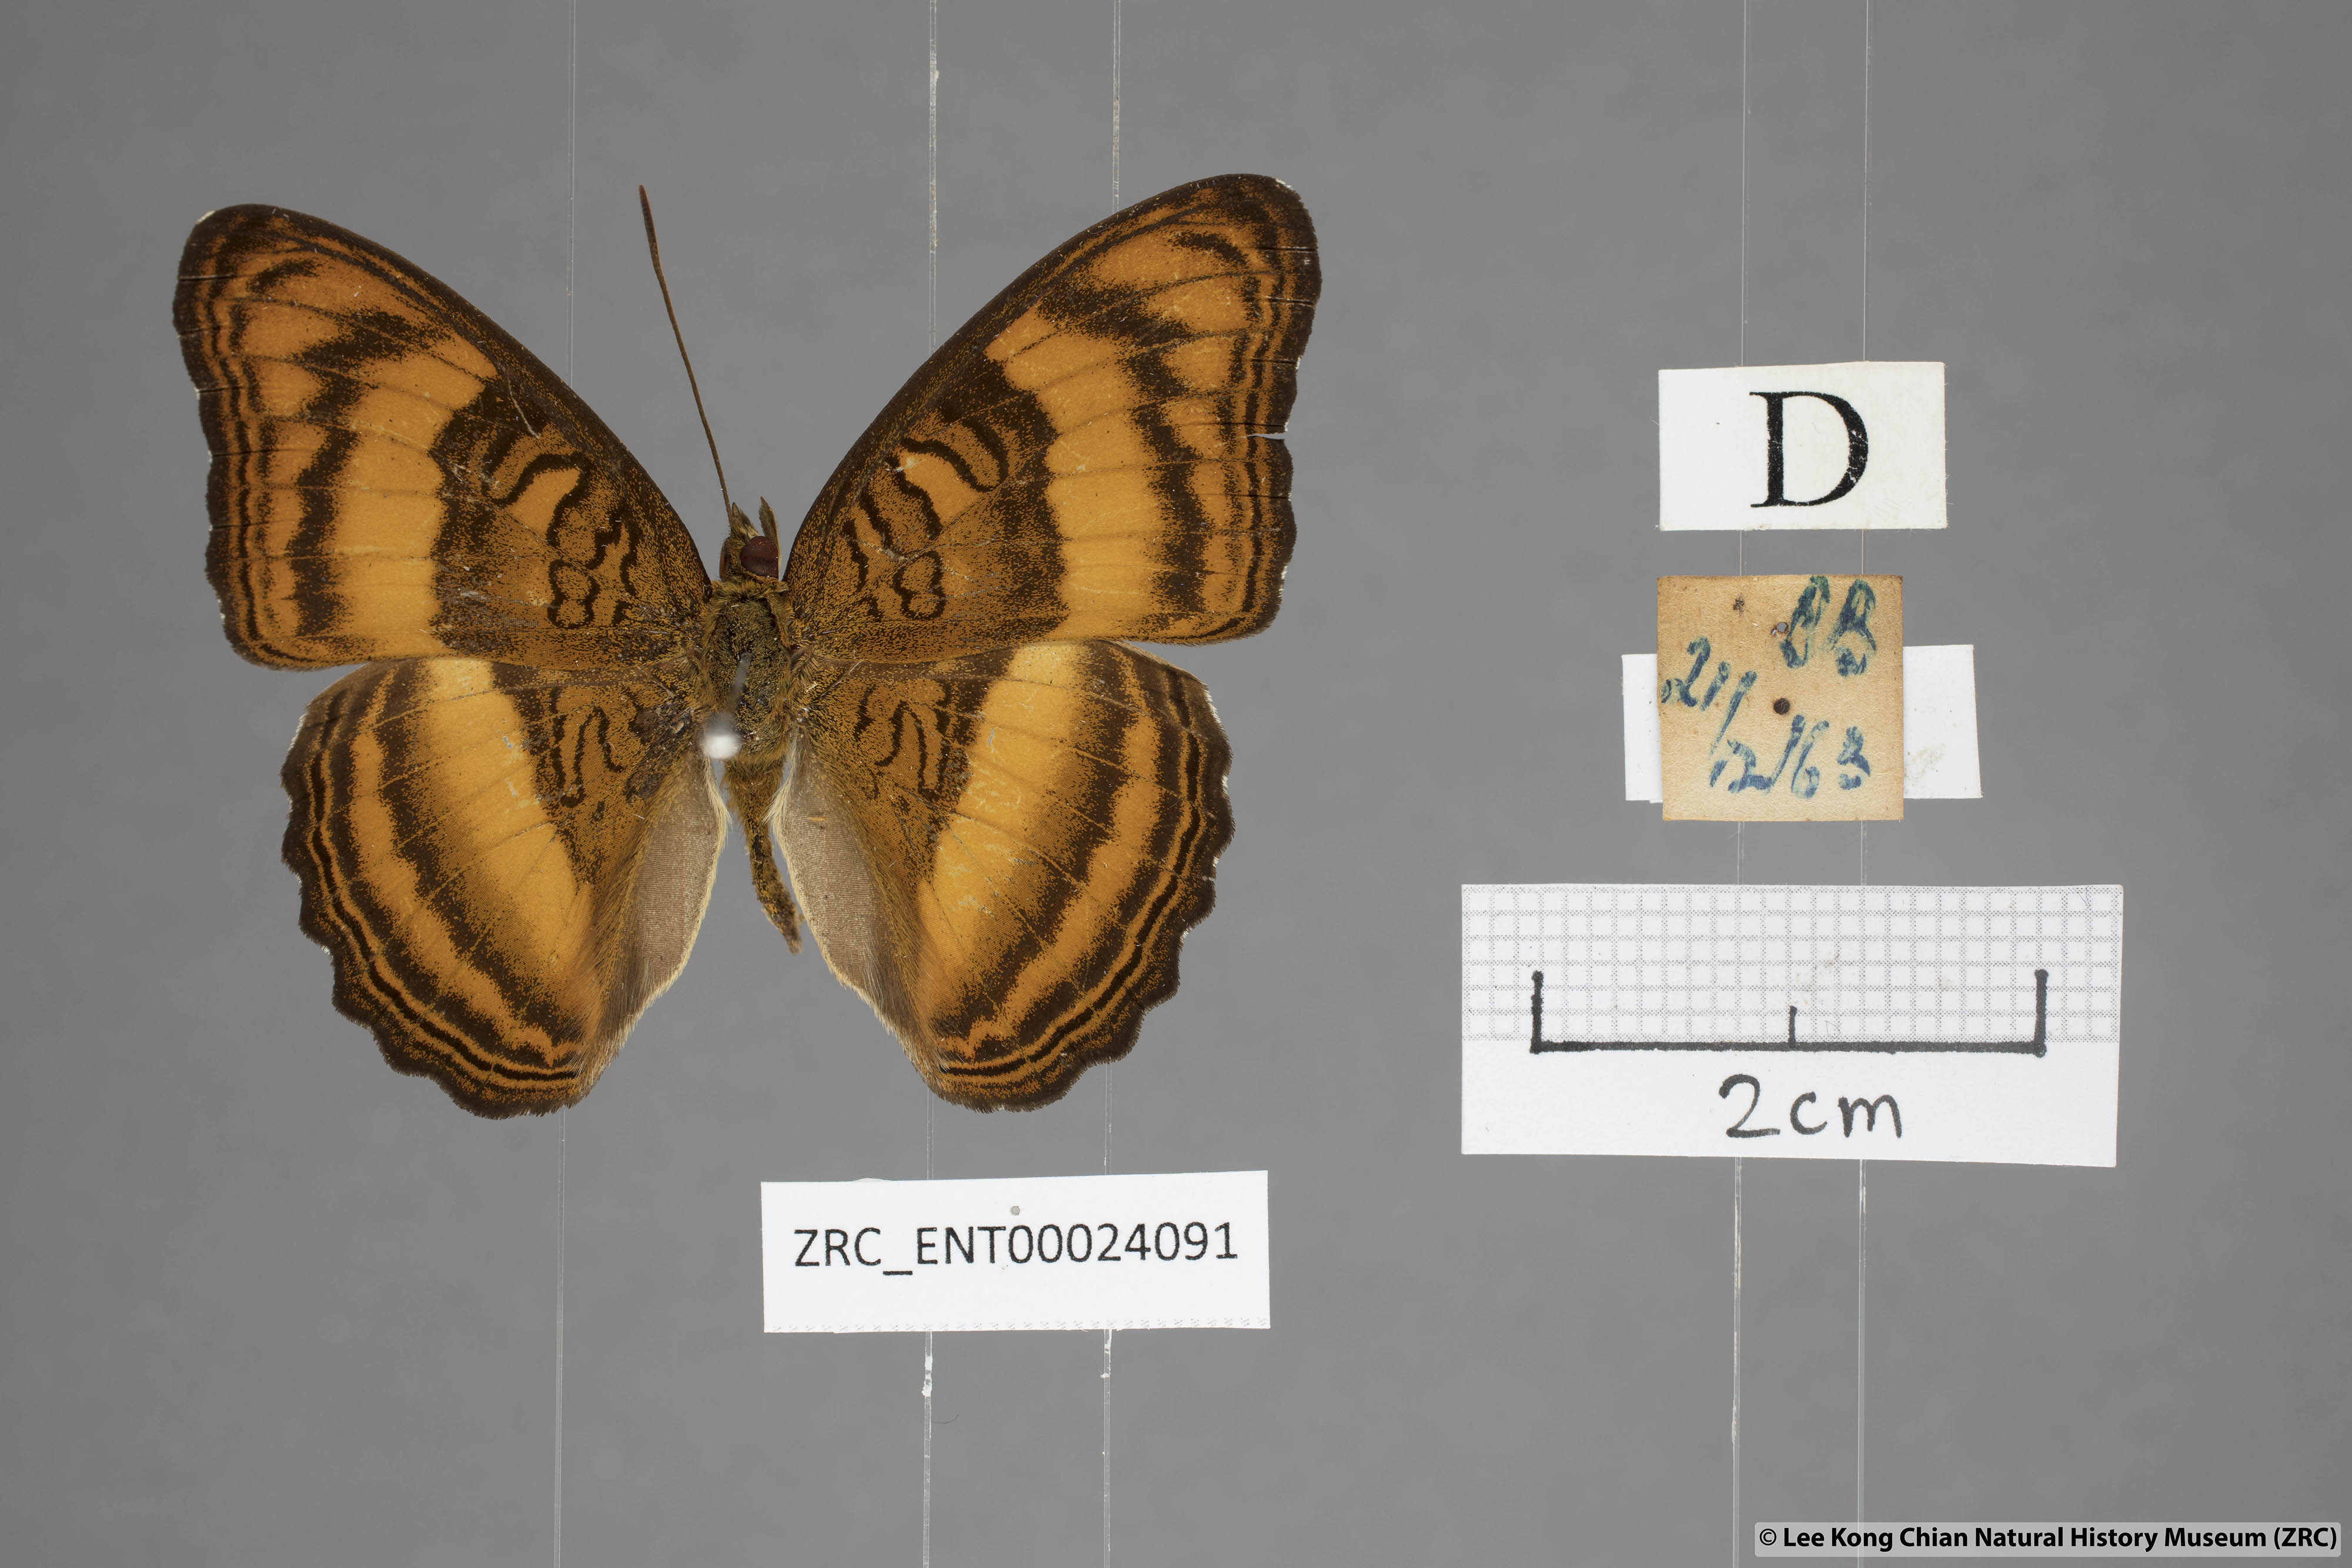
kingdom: Animalia
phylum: Arthropoda
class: Insecta
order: Lepidoptera
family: Nymphalidae
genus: Pandita
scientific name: Pandita sinope
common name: Colonel
